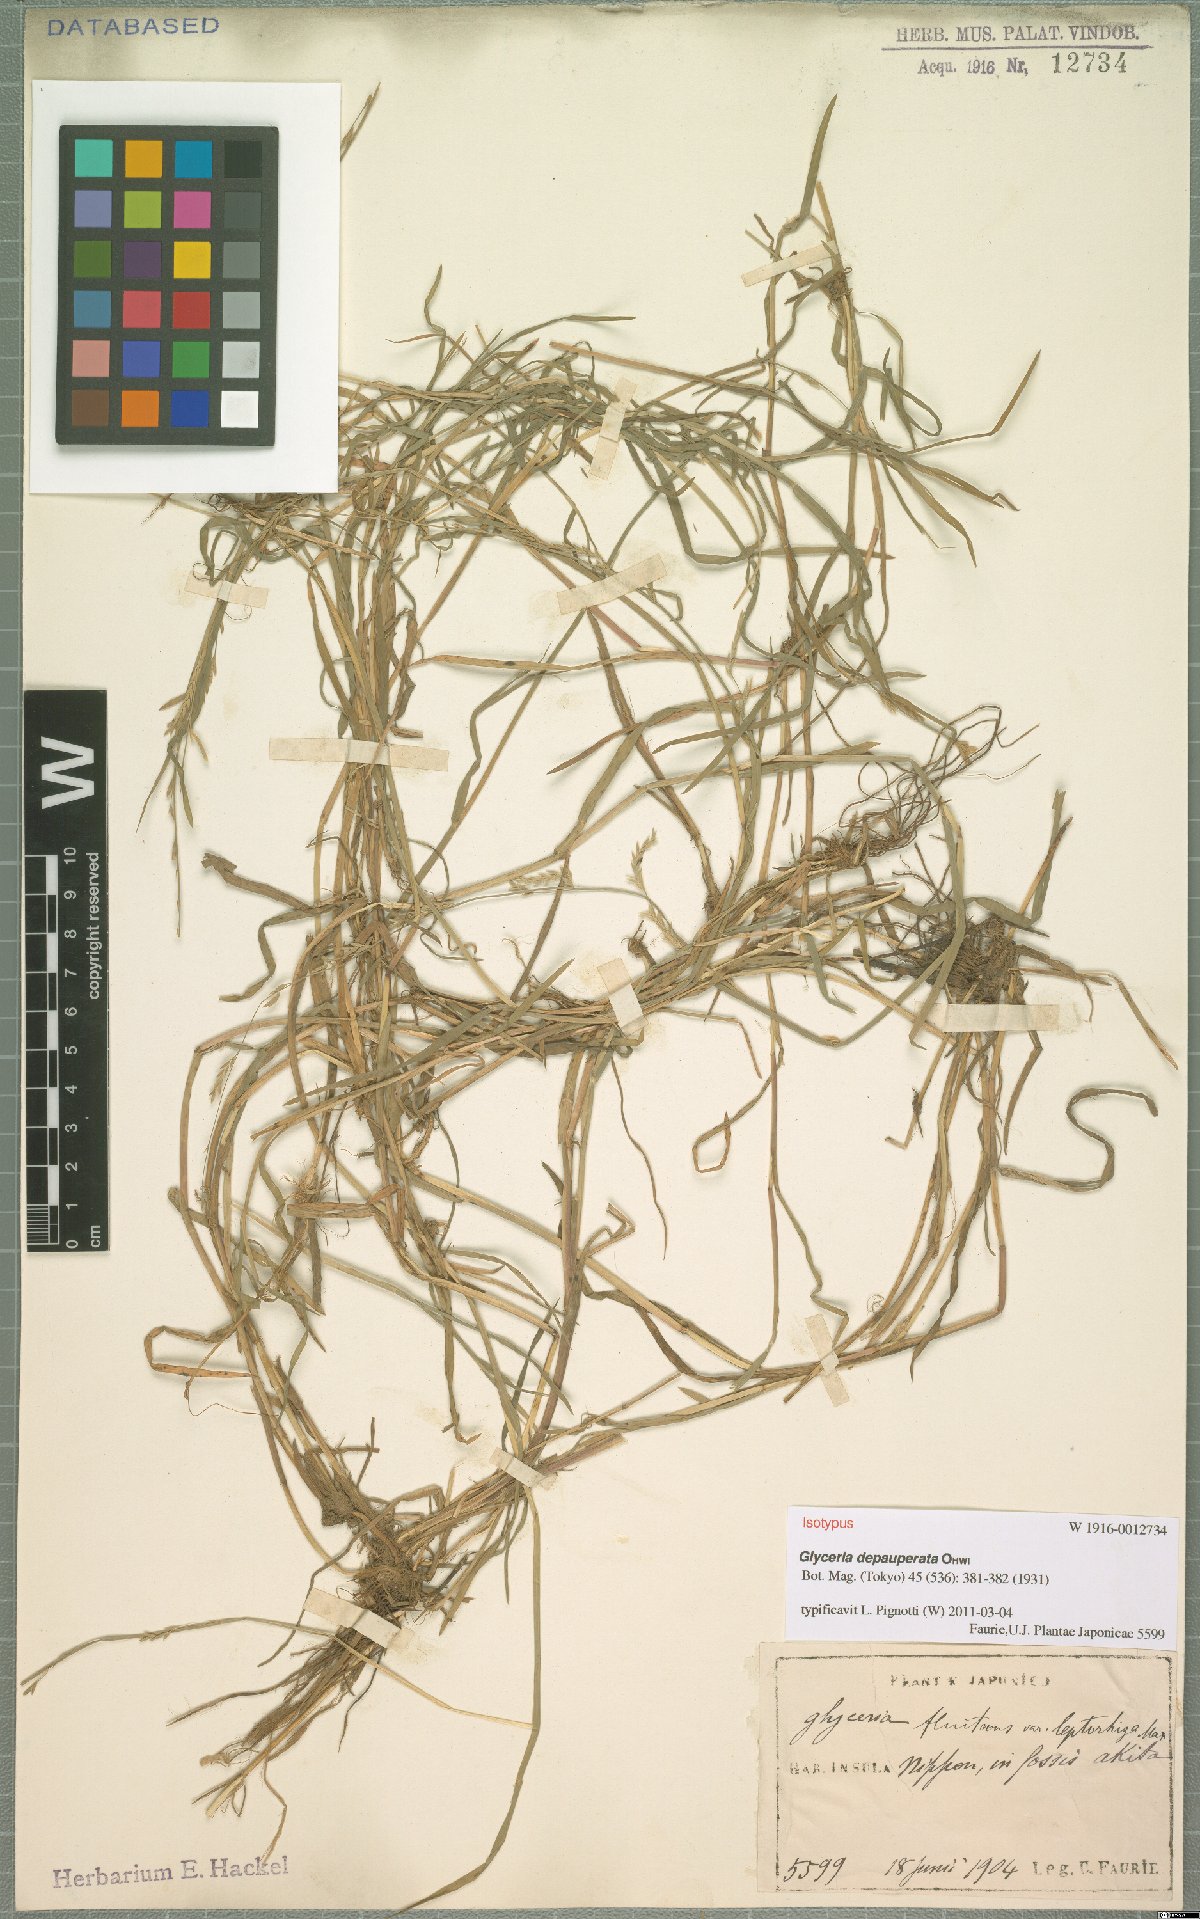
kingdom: Plantae
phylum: Tracheophyta
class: Liliopsida
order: Poales
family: Poaceae
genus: Glyceria
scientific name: Glyceria depauperata
